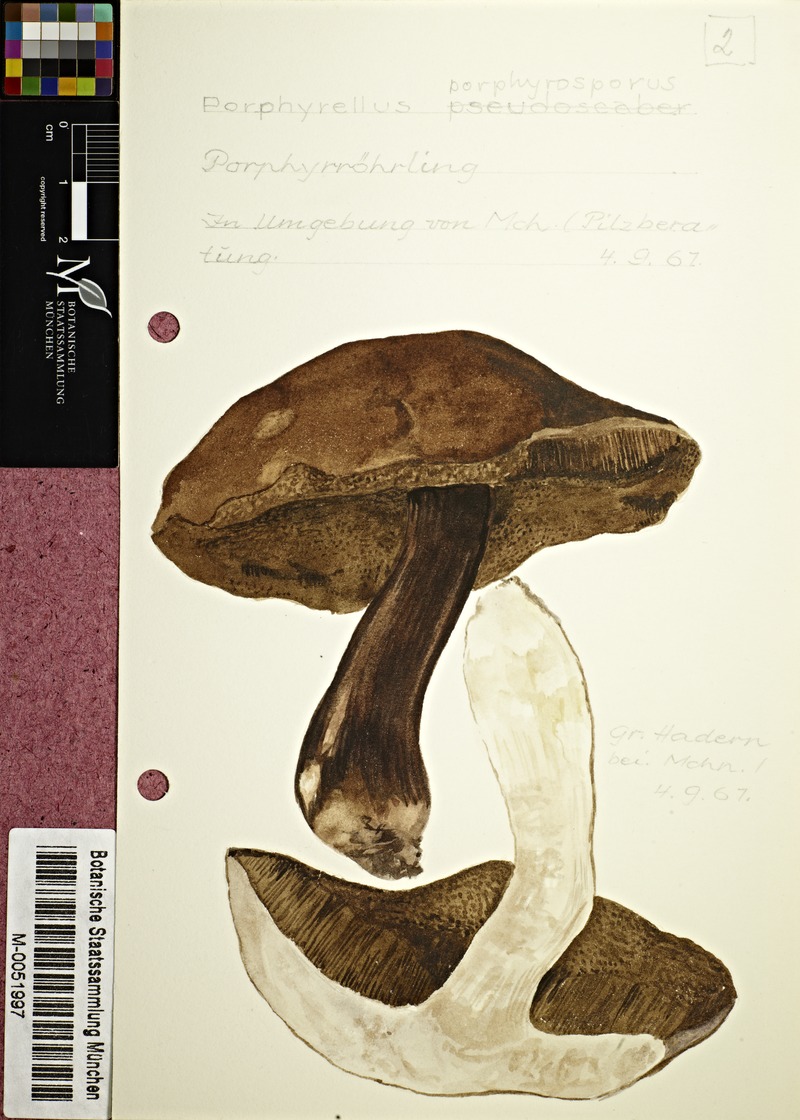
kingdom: Fungi
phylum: Basidiomycota
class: Agaricomycetes
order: Boletales
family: Boletaceae
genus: Porphyrellus
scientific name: Porphyrellus porphyrosporus
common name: Dusky bolete
